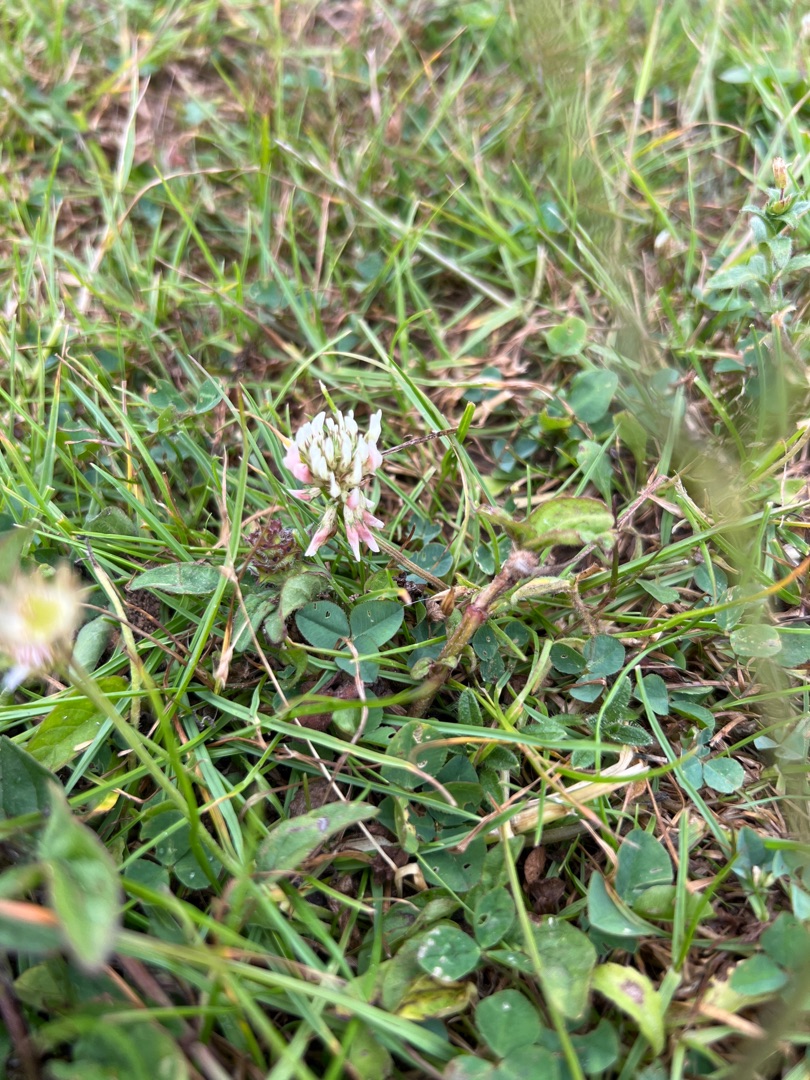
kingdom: Plantae
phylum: Tracheophyta
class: Magnoliopsida
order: Fabales
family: Fabaceae
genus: Trifolium
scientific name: Trifolium repens
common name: Hvid-kløver
